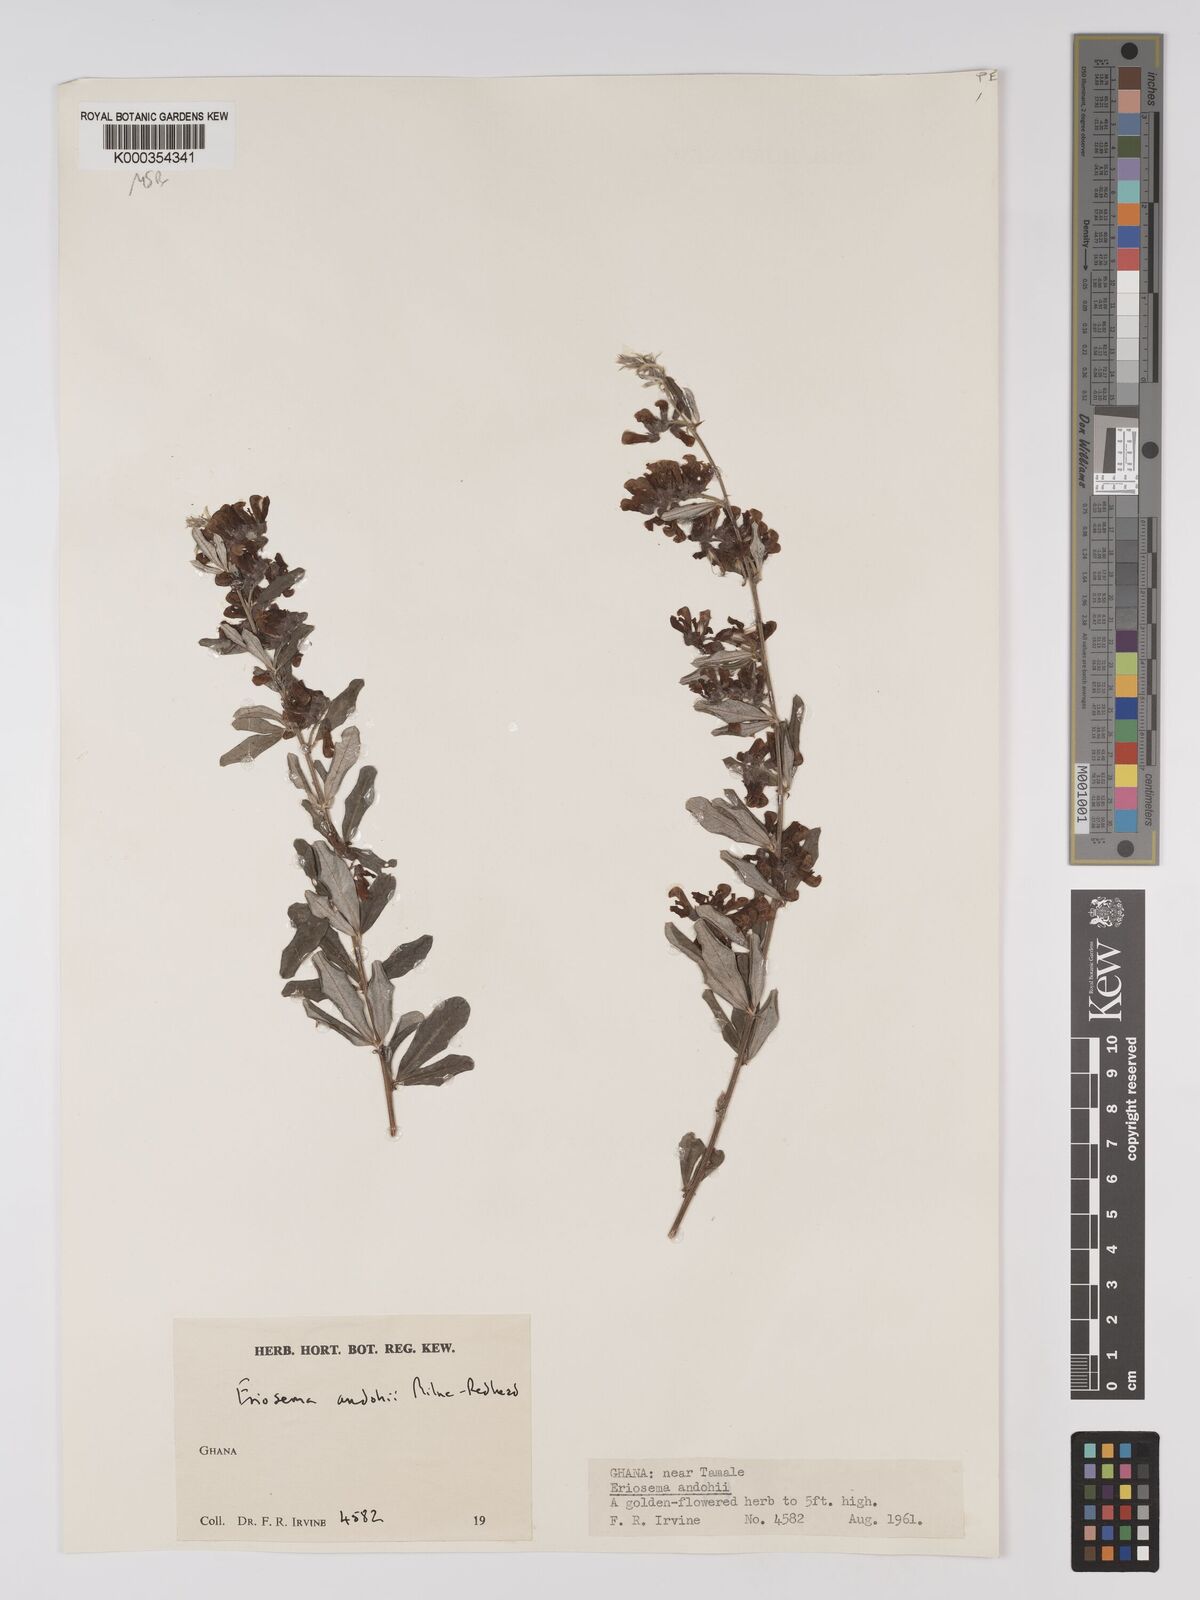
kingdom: Plantae
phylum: Tracheophyta
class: Magnoliopsida
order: Fabales
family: Fabaceae
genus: Eriosema
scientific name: Eriosema andohii
